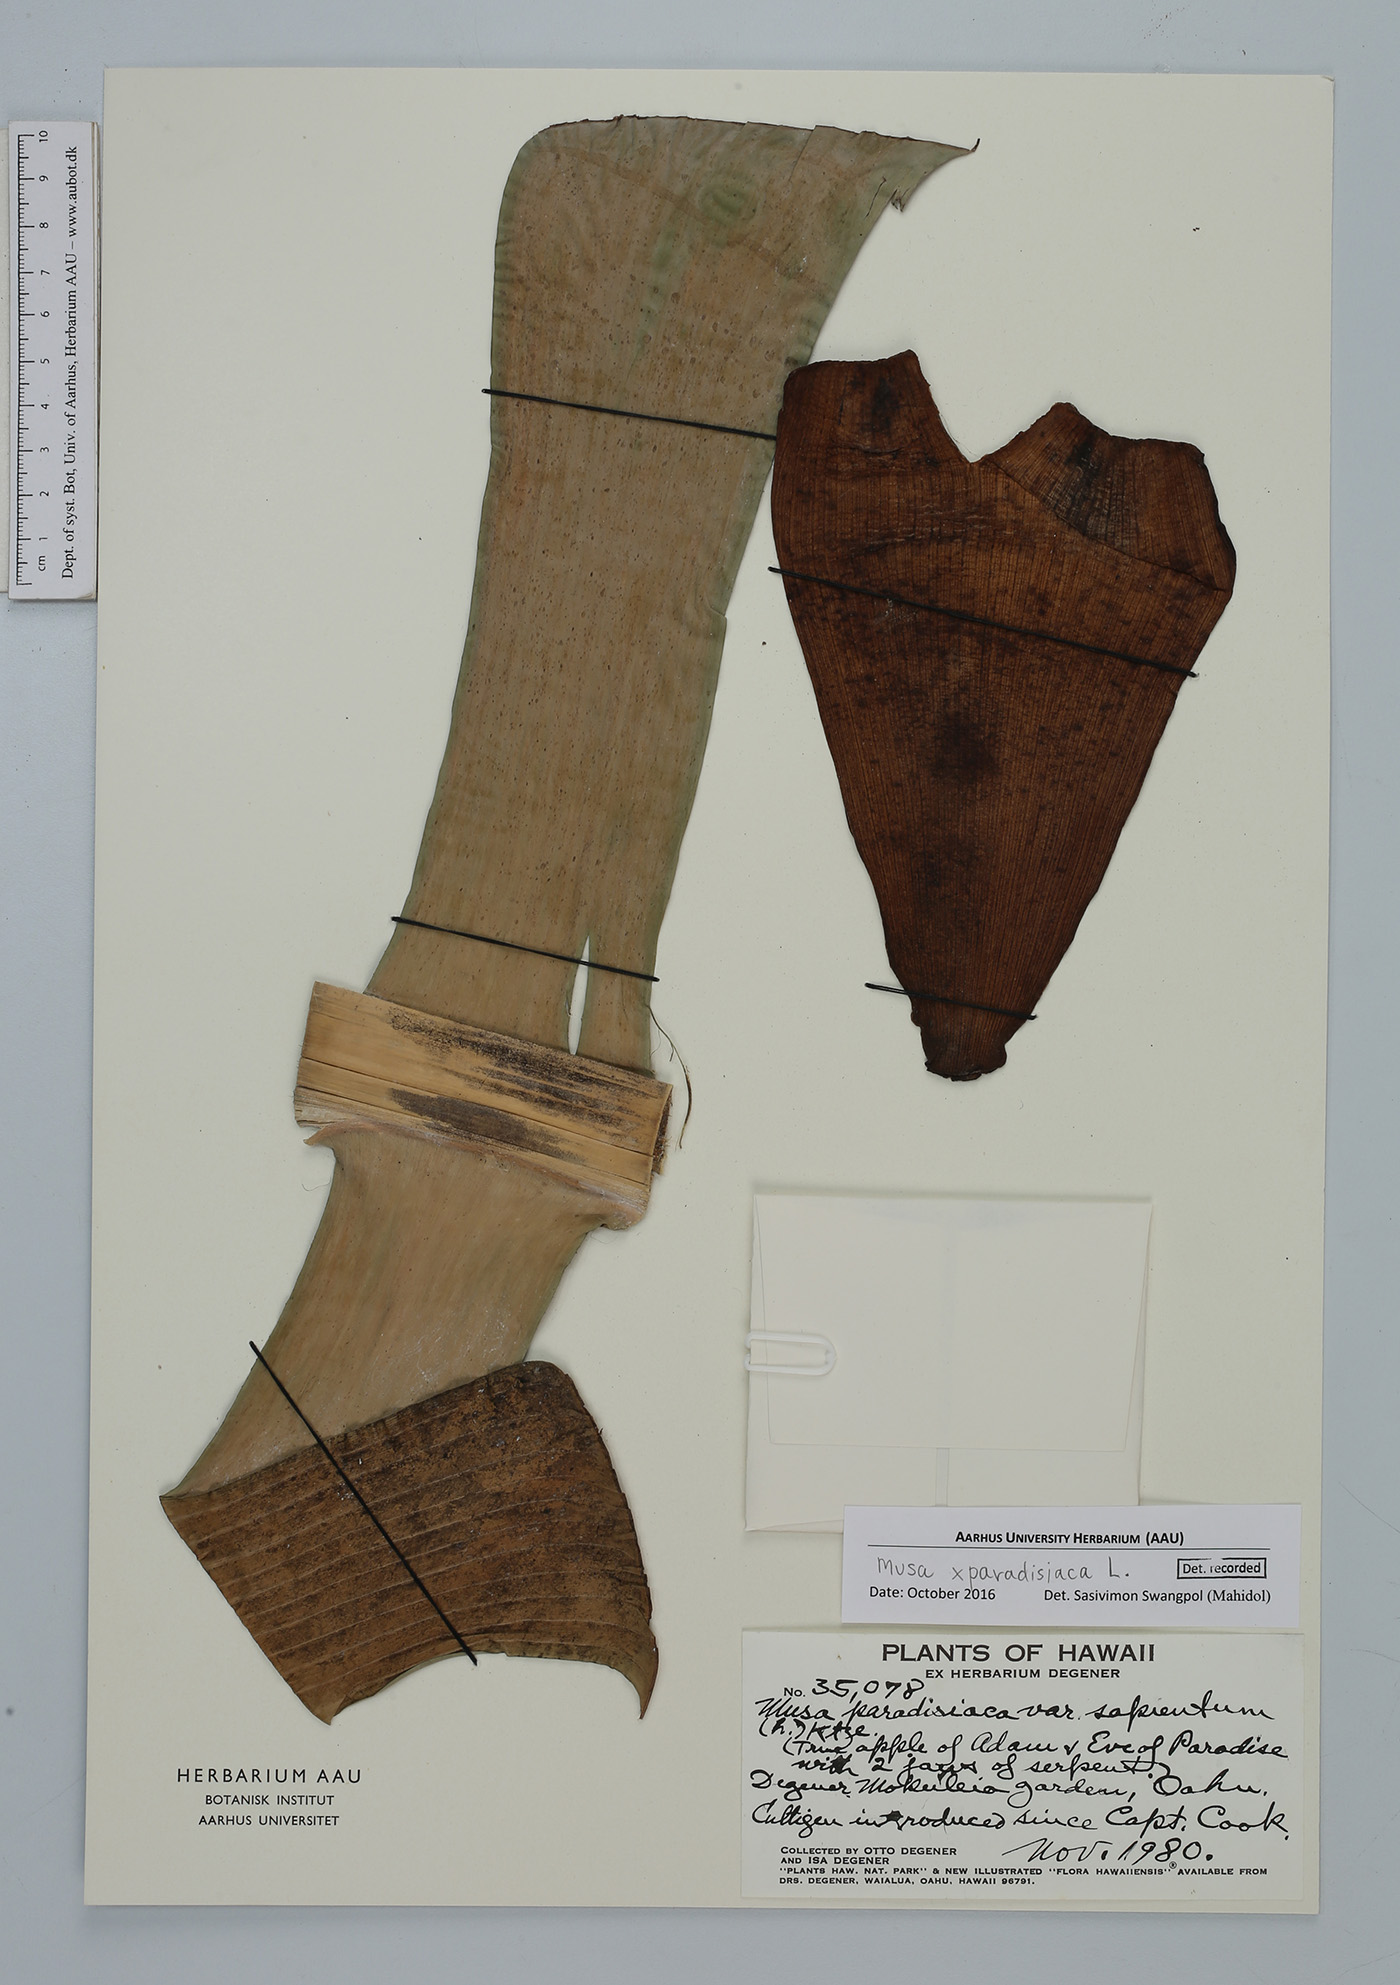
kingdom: Plantae
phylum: Tracheophyta
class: Liliopsida
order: Zingiberales
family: Musaceae
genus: Musa
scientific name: Musa paradisiaca
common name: French plantain
